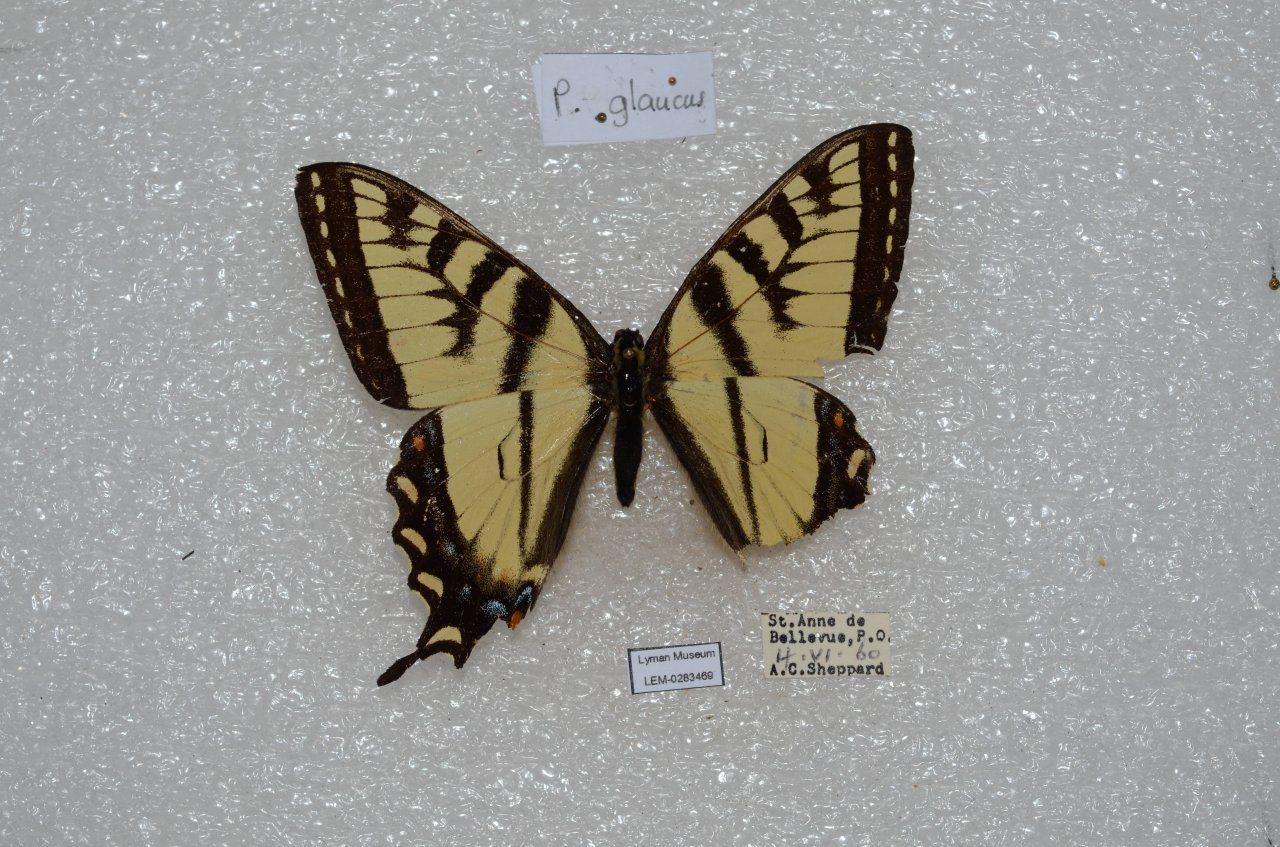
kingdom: Animalia
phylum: Arthropoda
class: Insecta
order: Lepidoptera
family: Papilionidae
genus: Pterourus
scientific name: Pterourus canadensis
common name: Canadian Tiger Swallowtail
